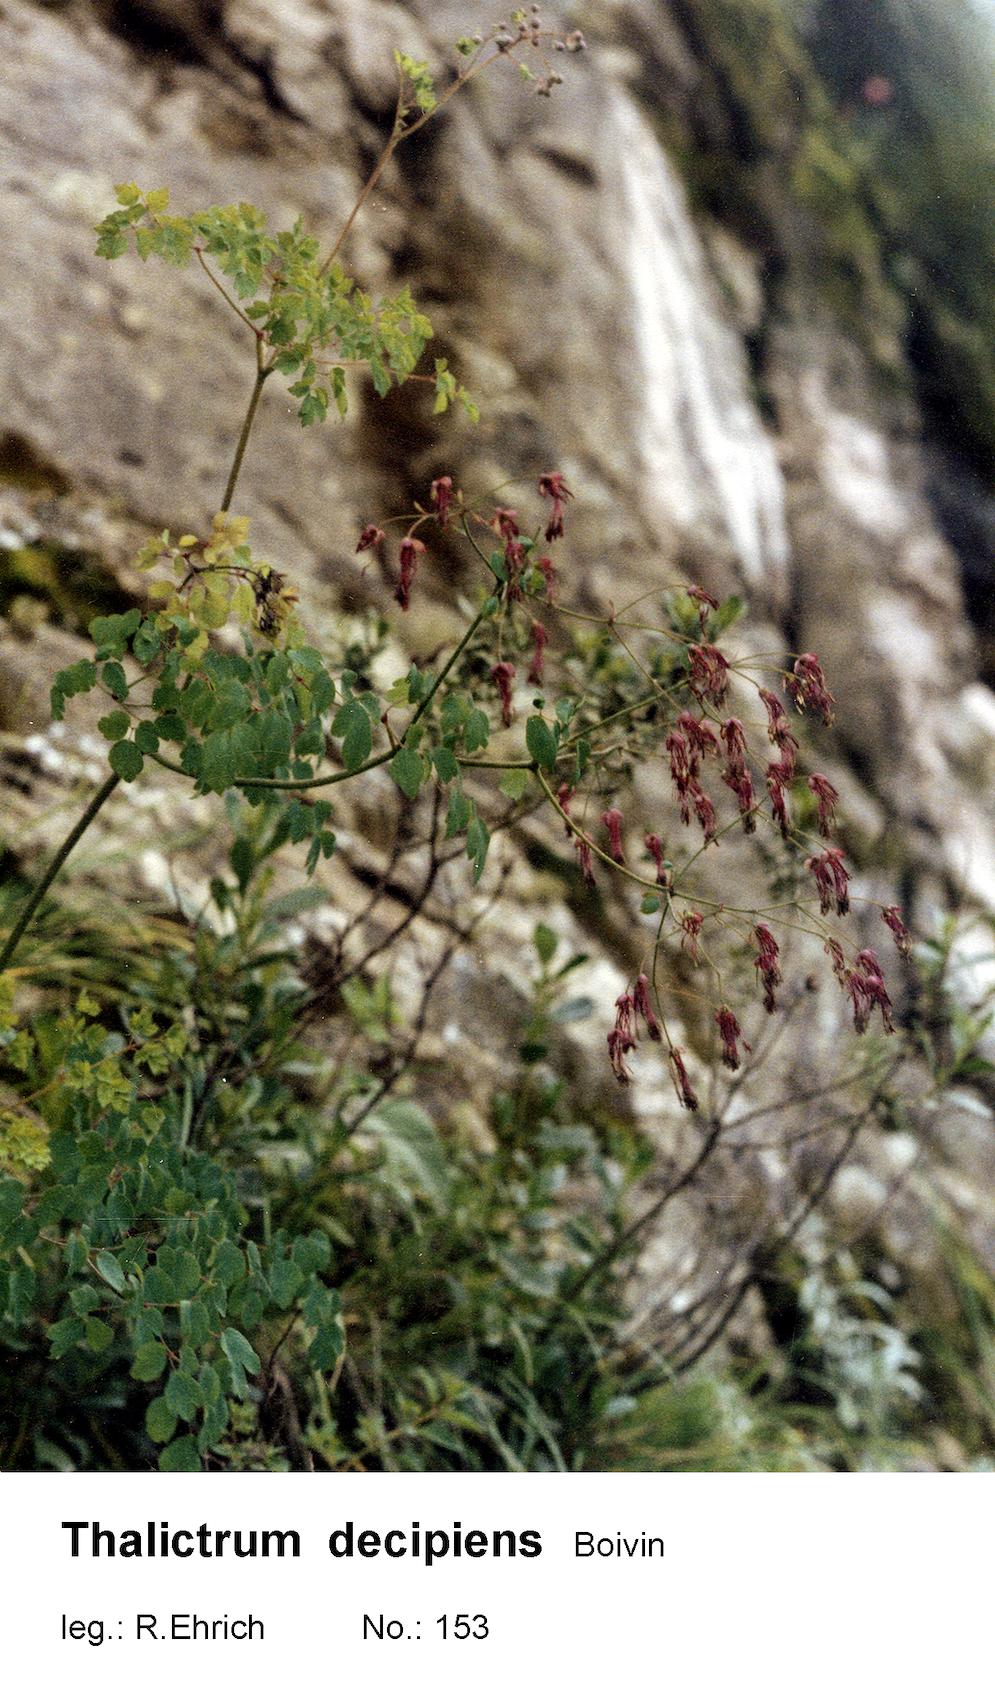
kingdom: Plantae
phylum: Tracheophyta
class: Magnoliopsida
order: Ranunculales
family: Ranunculaceae
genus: Thalictrum
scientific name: Thalictrum decipiens
